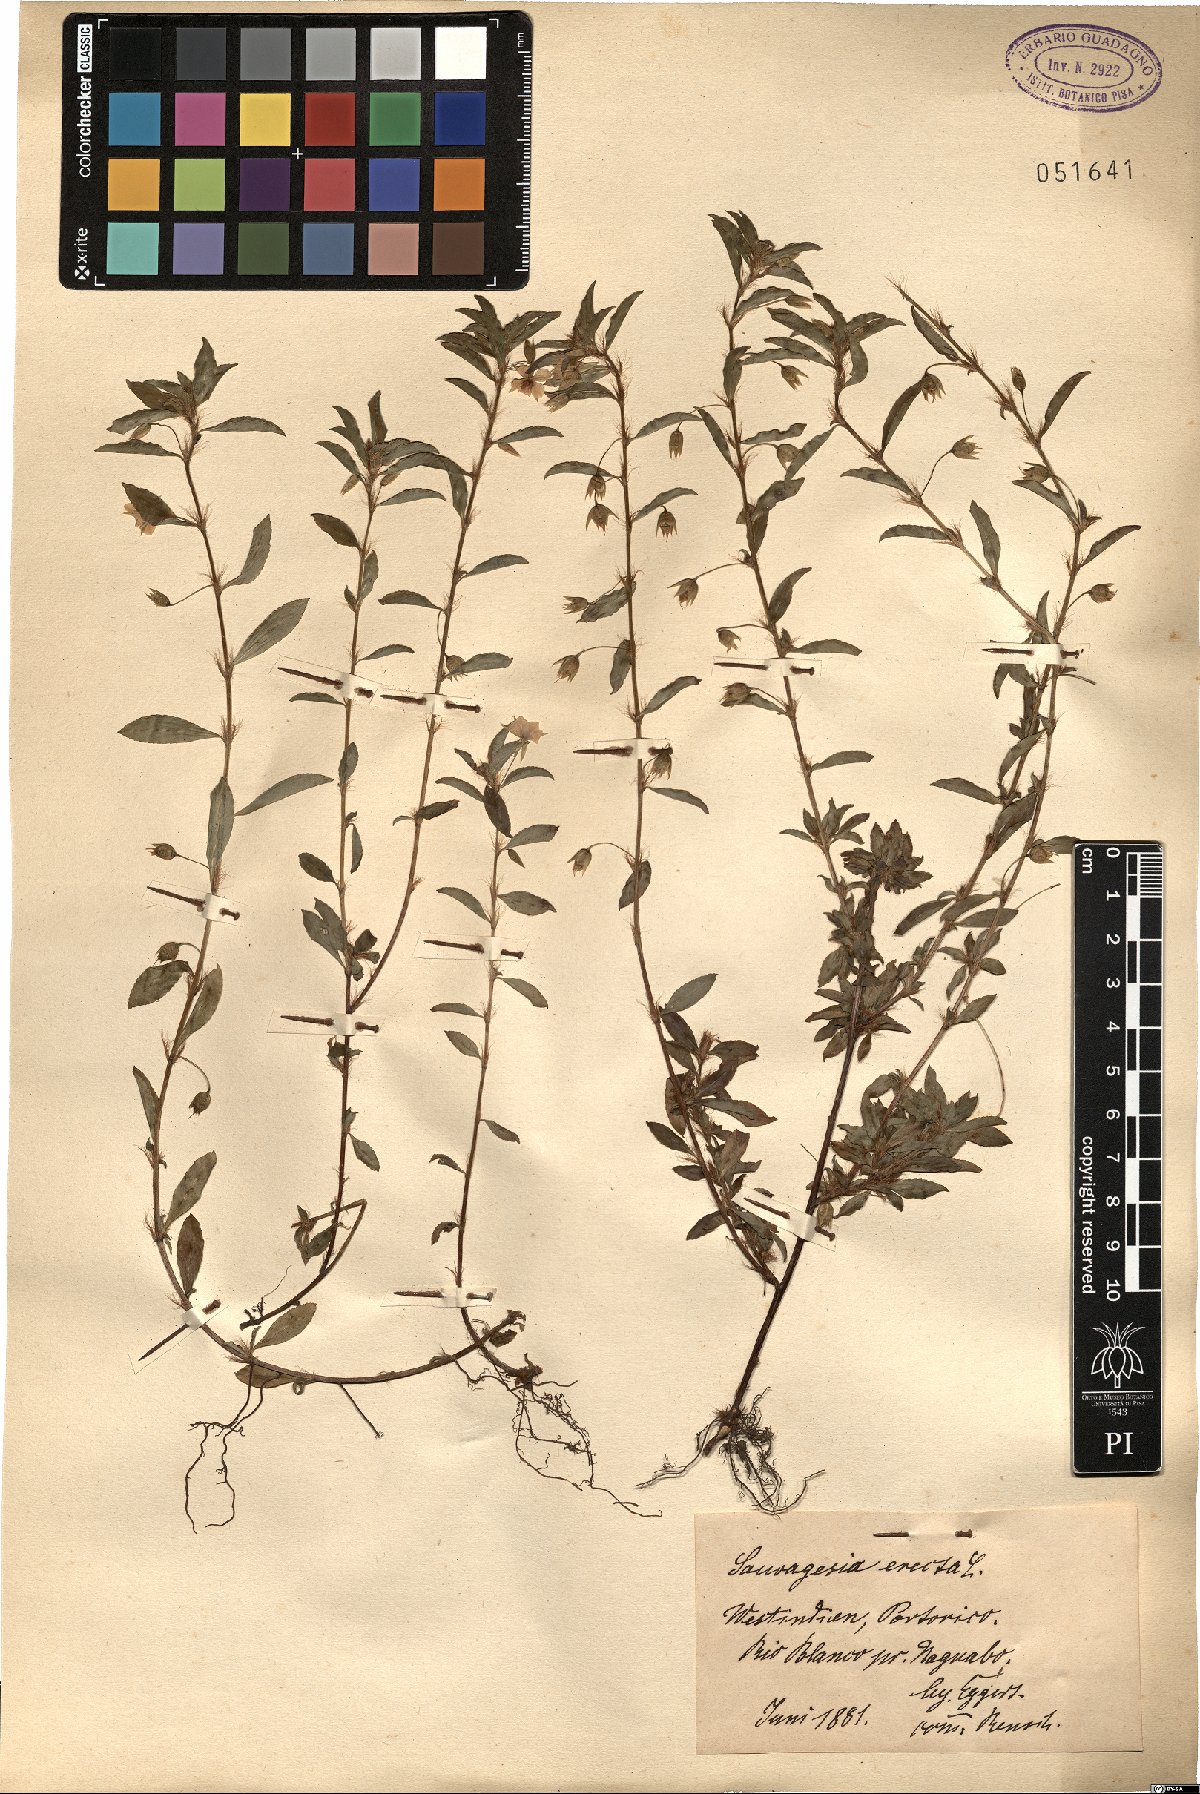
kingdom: Plantae
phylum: Tracheophyta
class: Magnoliopsida
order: Malpighiales
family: Ochnaceae
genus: Sauvagesia
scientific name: Sauvagesia erecta
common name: Creole tea
